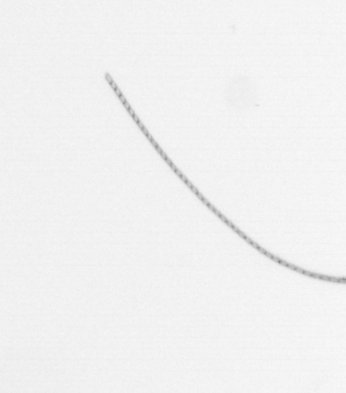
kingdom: Chromista
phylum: Ochrophyta
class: Bacillariophyceae
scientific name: Bacillariophyceae
